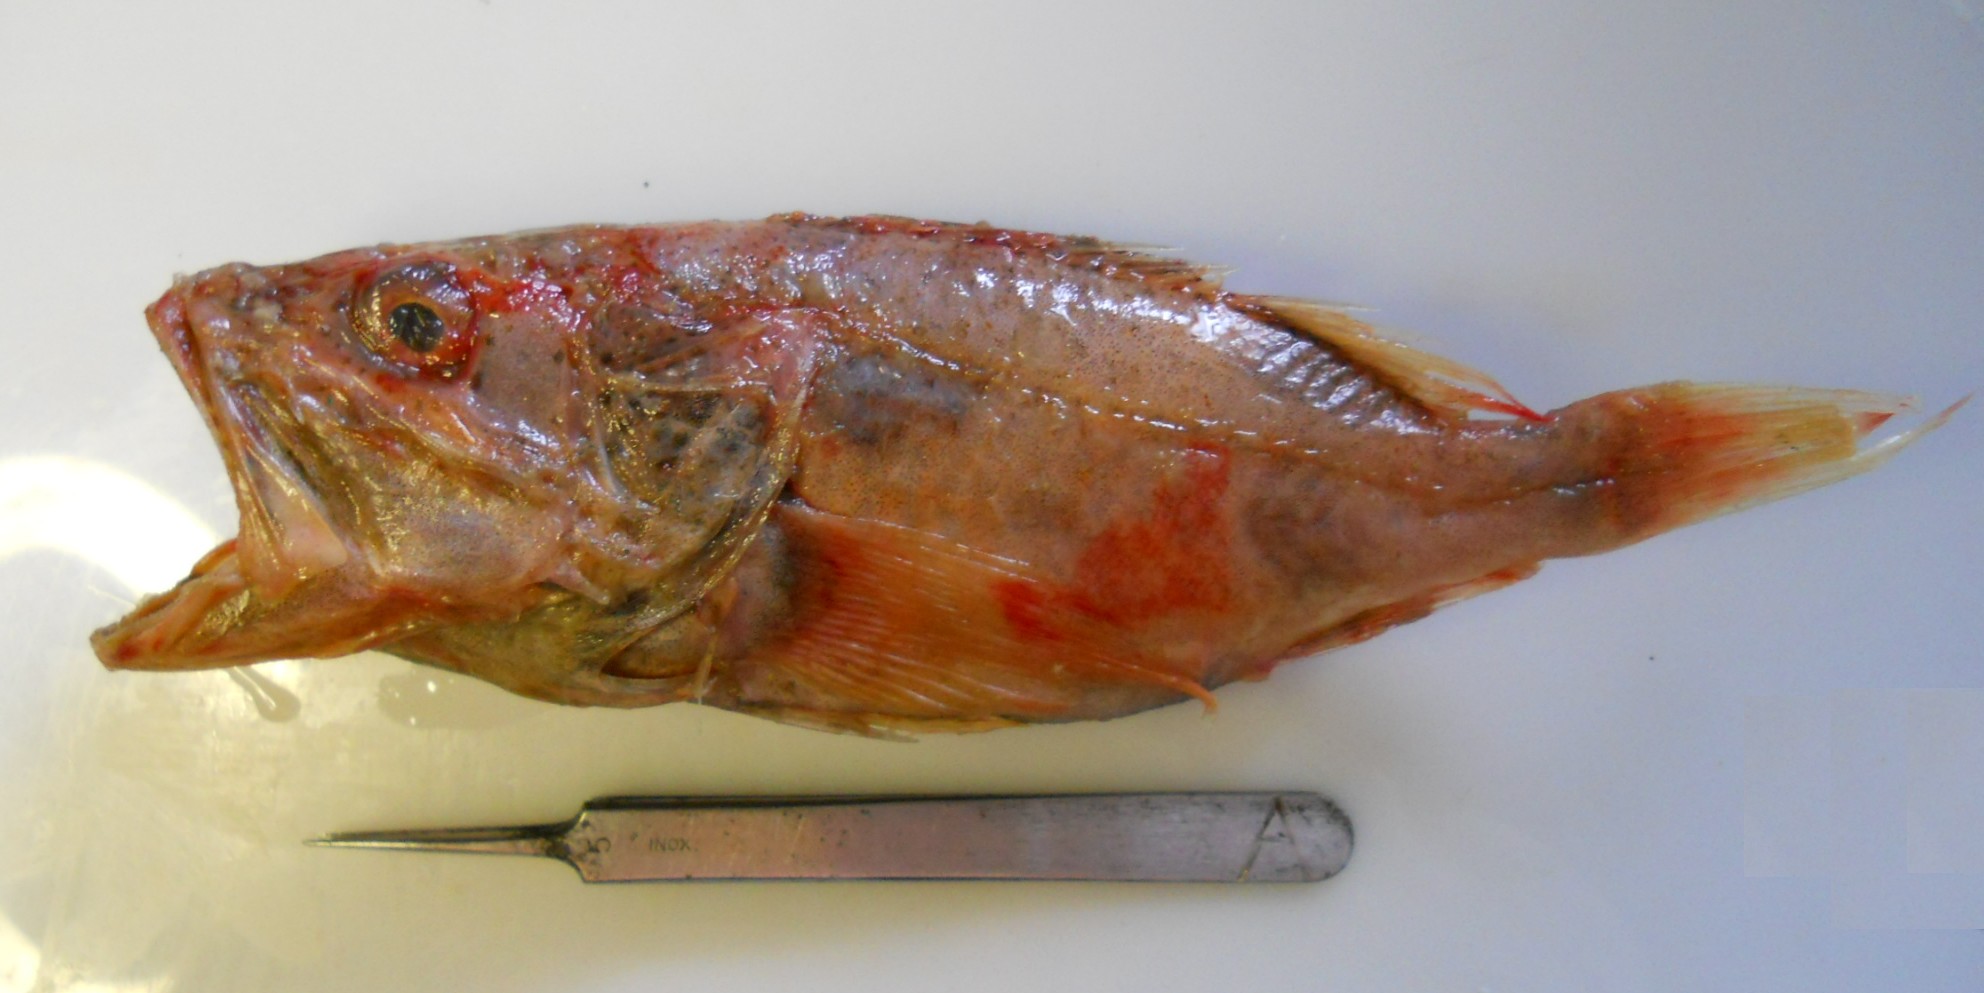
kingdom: Animalia
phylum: Chordata
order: Scorpaeniformes
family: Setarchidae
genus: Setarches
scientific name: Setarches guentheri
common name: Deepwater scorpionfish
